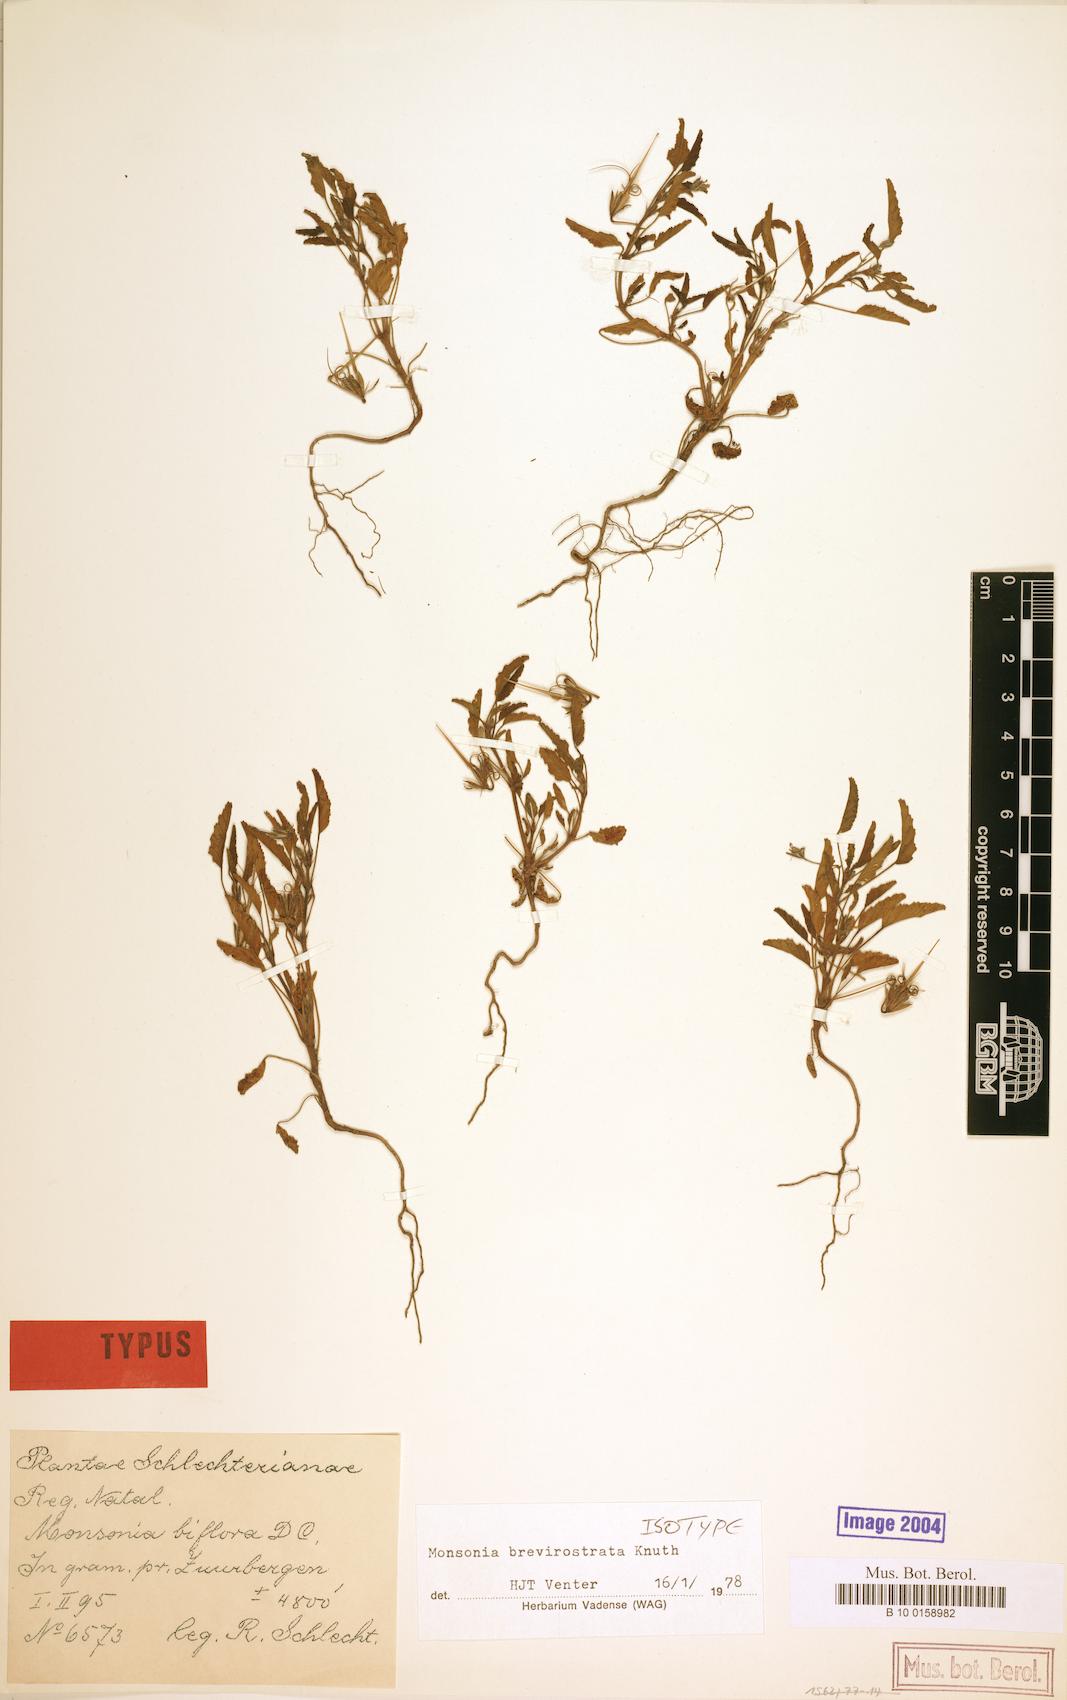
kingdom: Plantae
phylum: Tracheophyta
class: Magnoliopsida
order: Geraniales
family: Geraniaceae
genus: Monsonia
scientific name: Monsonia brevirostrata
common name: Short-fruited dysentery-herb
